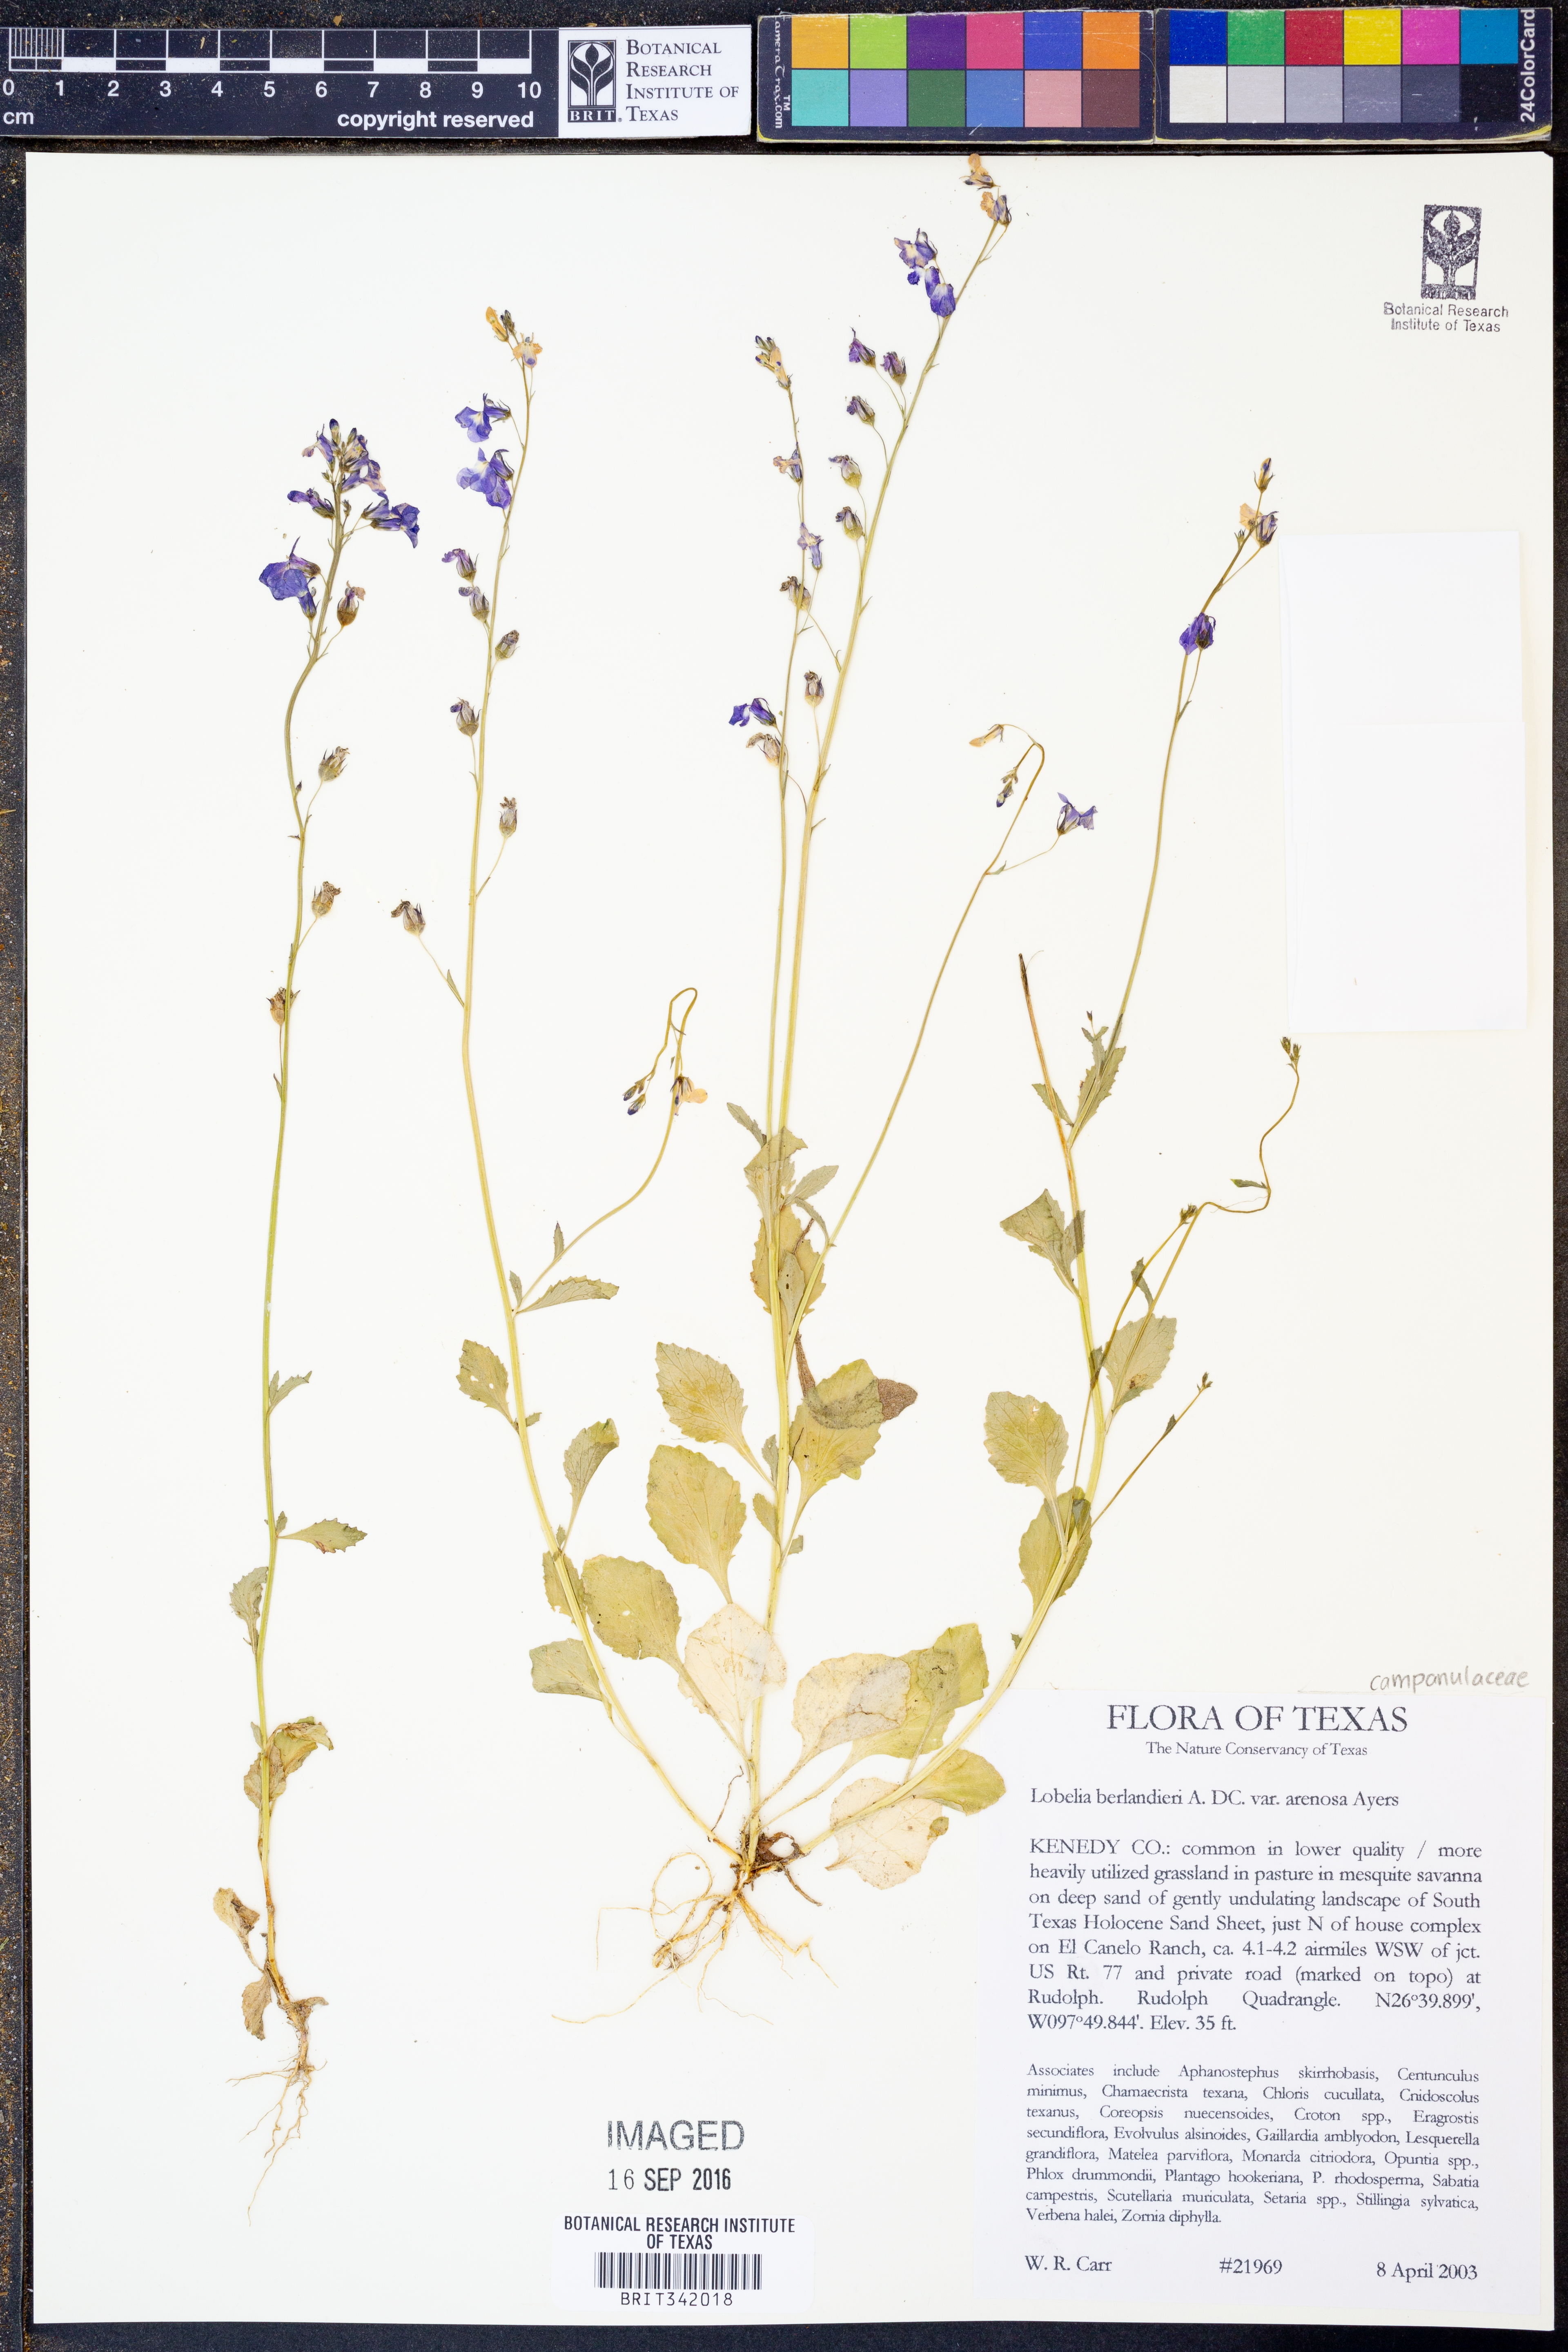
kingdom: Plantae
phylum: Tracheophyta
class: Magnoliopsida
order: Asterales
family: Campanulaceae
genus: Lobelia
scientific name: Lobelia berlandieri
